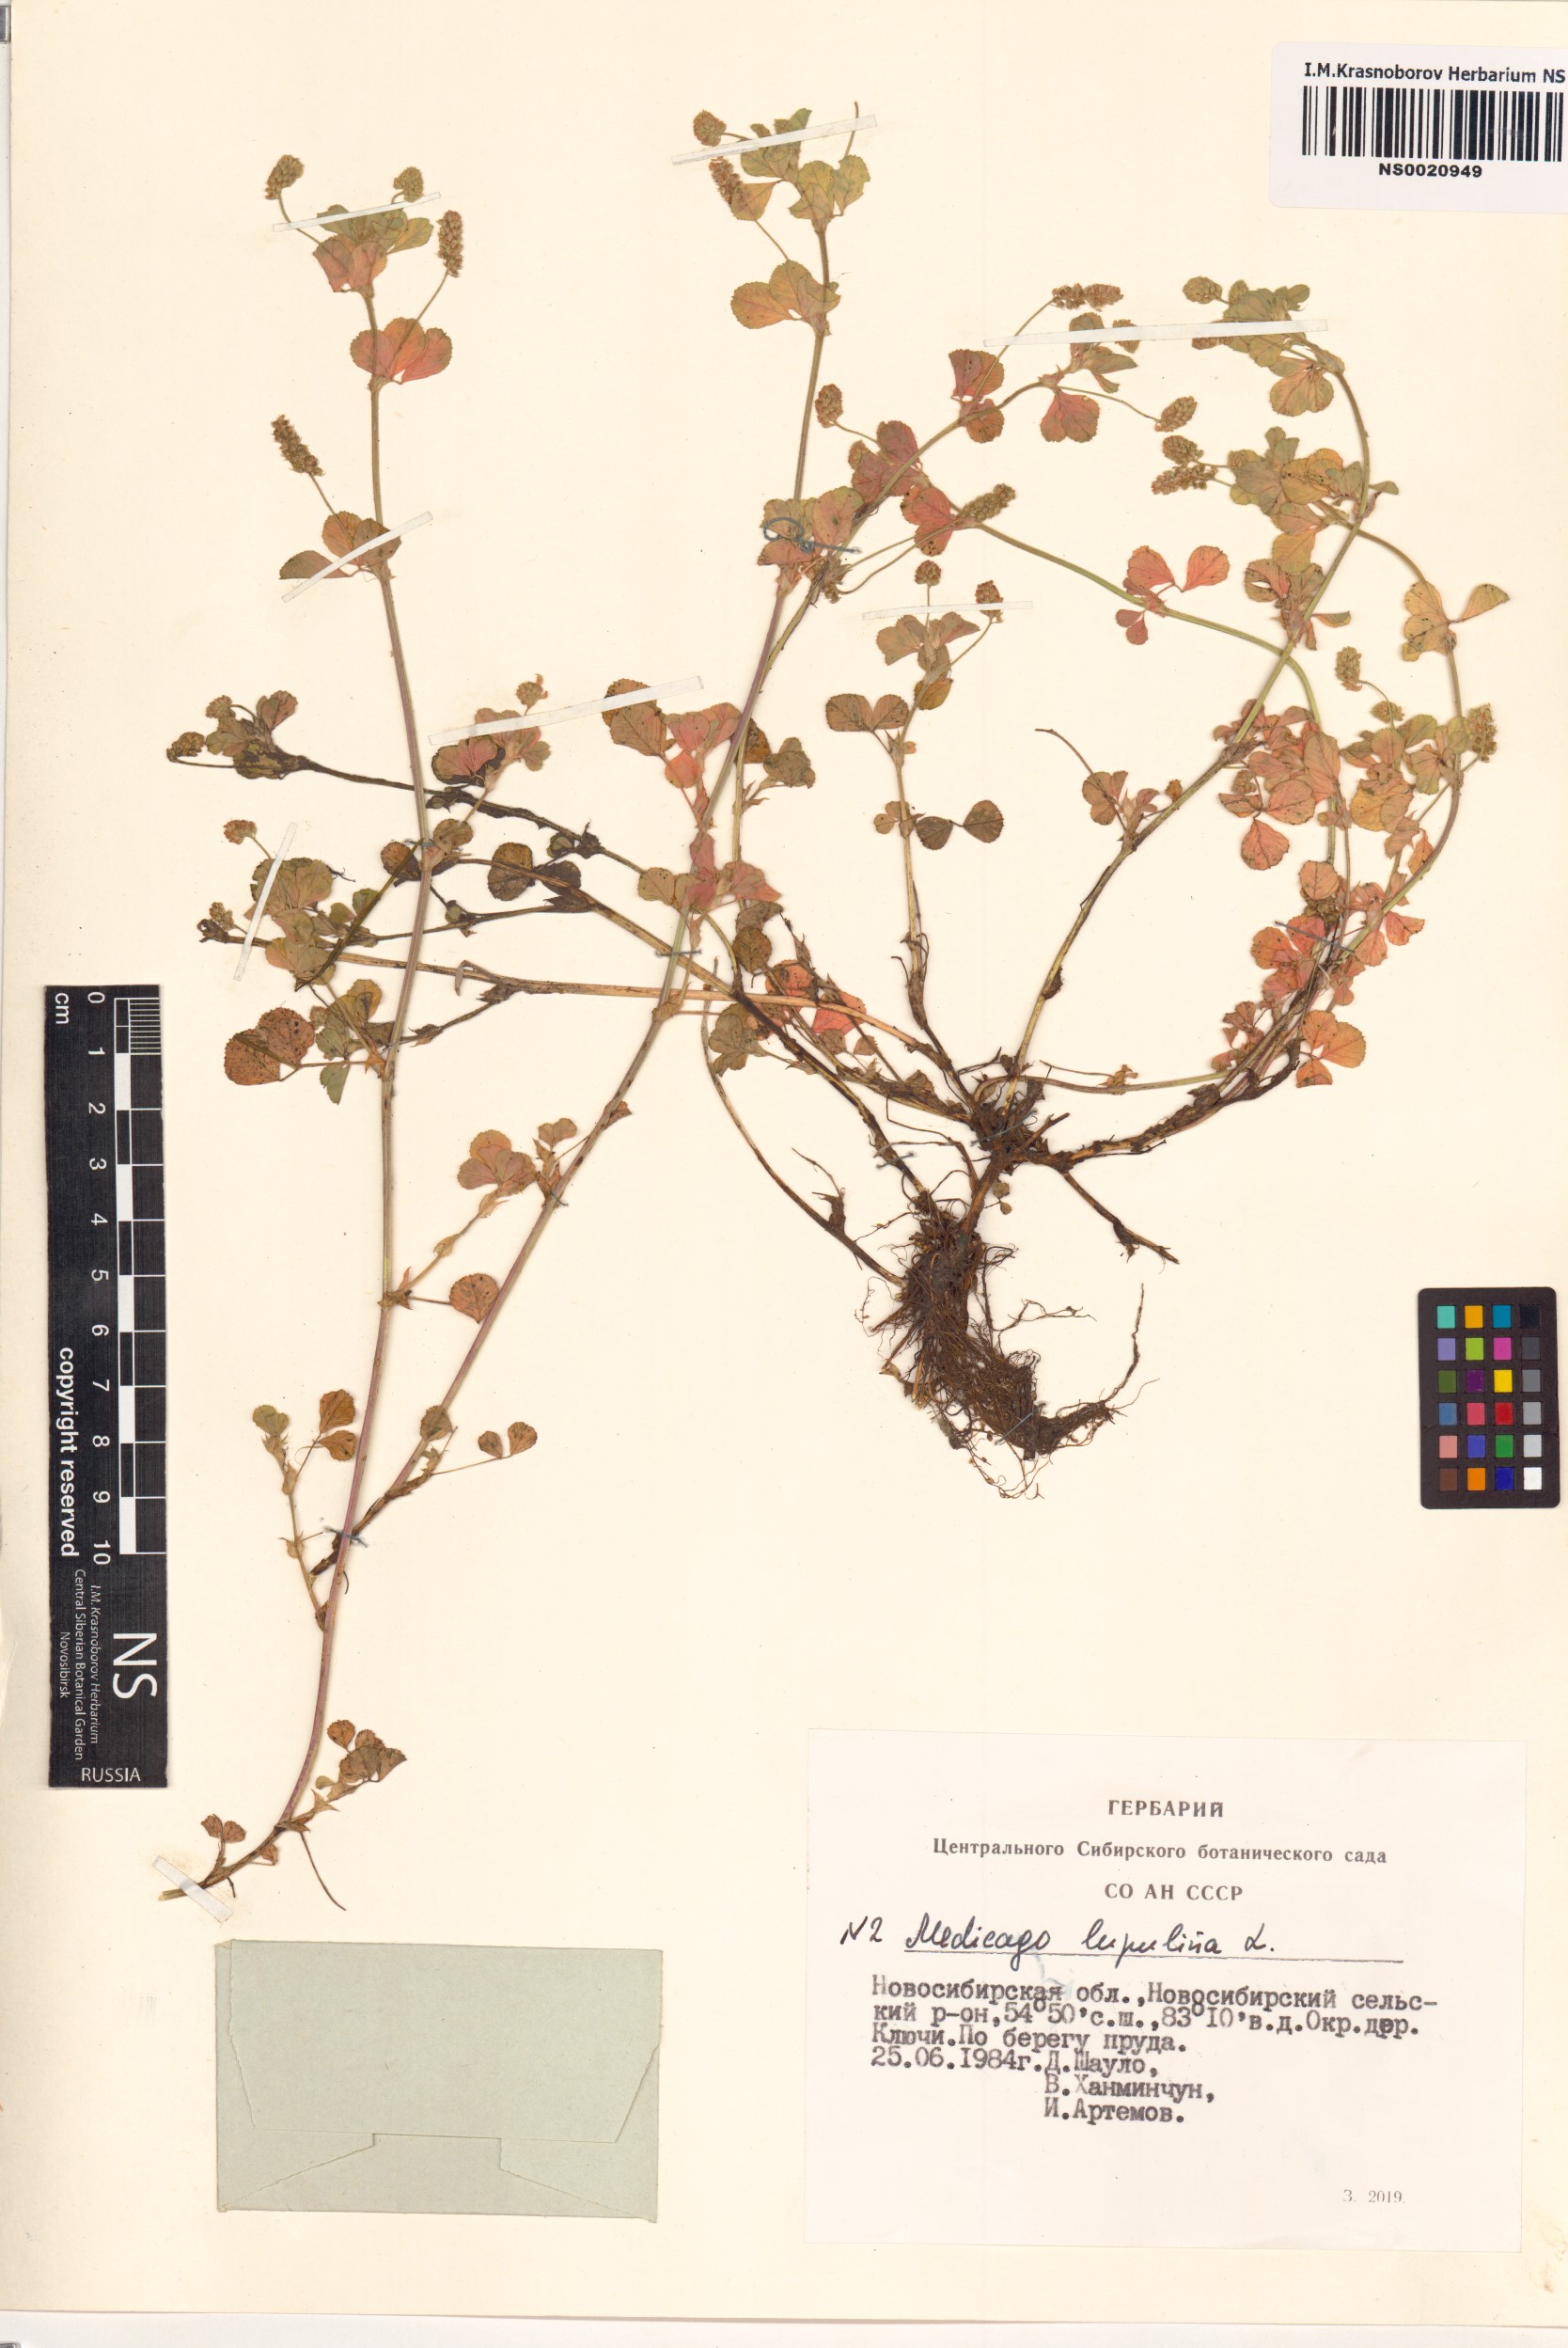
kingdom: Plantae
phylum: Tracheophyta
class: Magnoliopsida
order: Fabales
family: Fabaceae
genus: Medicago
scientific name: Medicago lupulina
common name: Black medick
